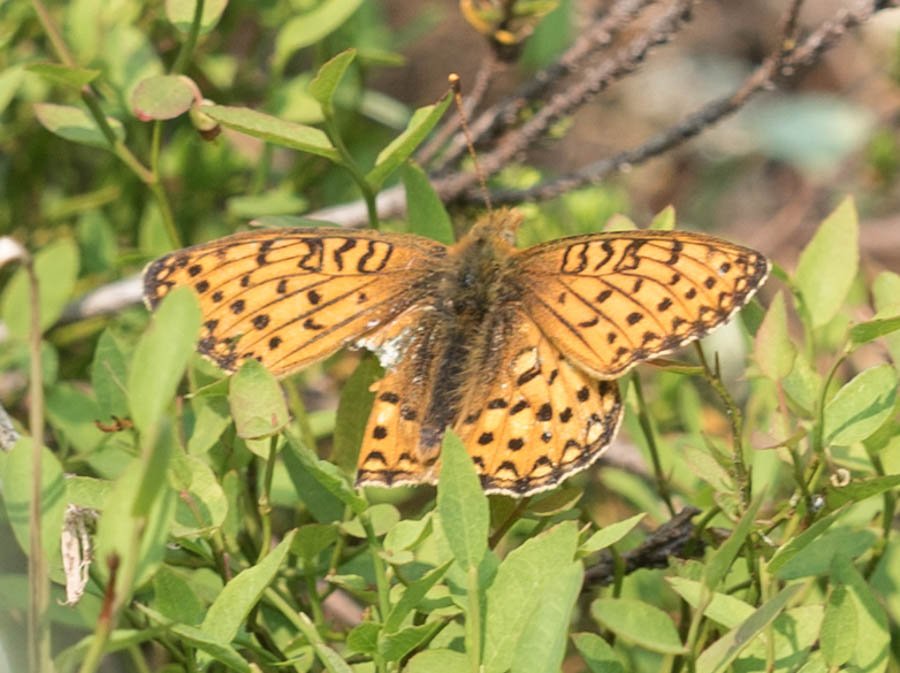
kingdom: Animalia
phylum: Arthropoda
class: Insecta
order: Lepidoptera
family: Nymphalidae
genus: Speyeria
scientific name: Speyeria mormonia
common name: Mormon Fritillary
